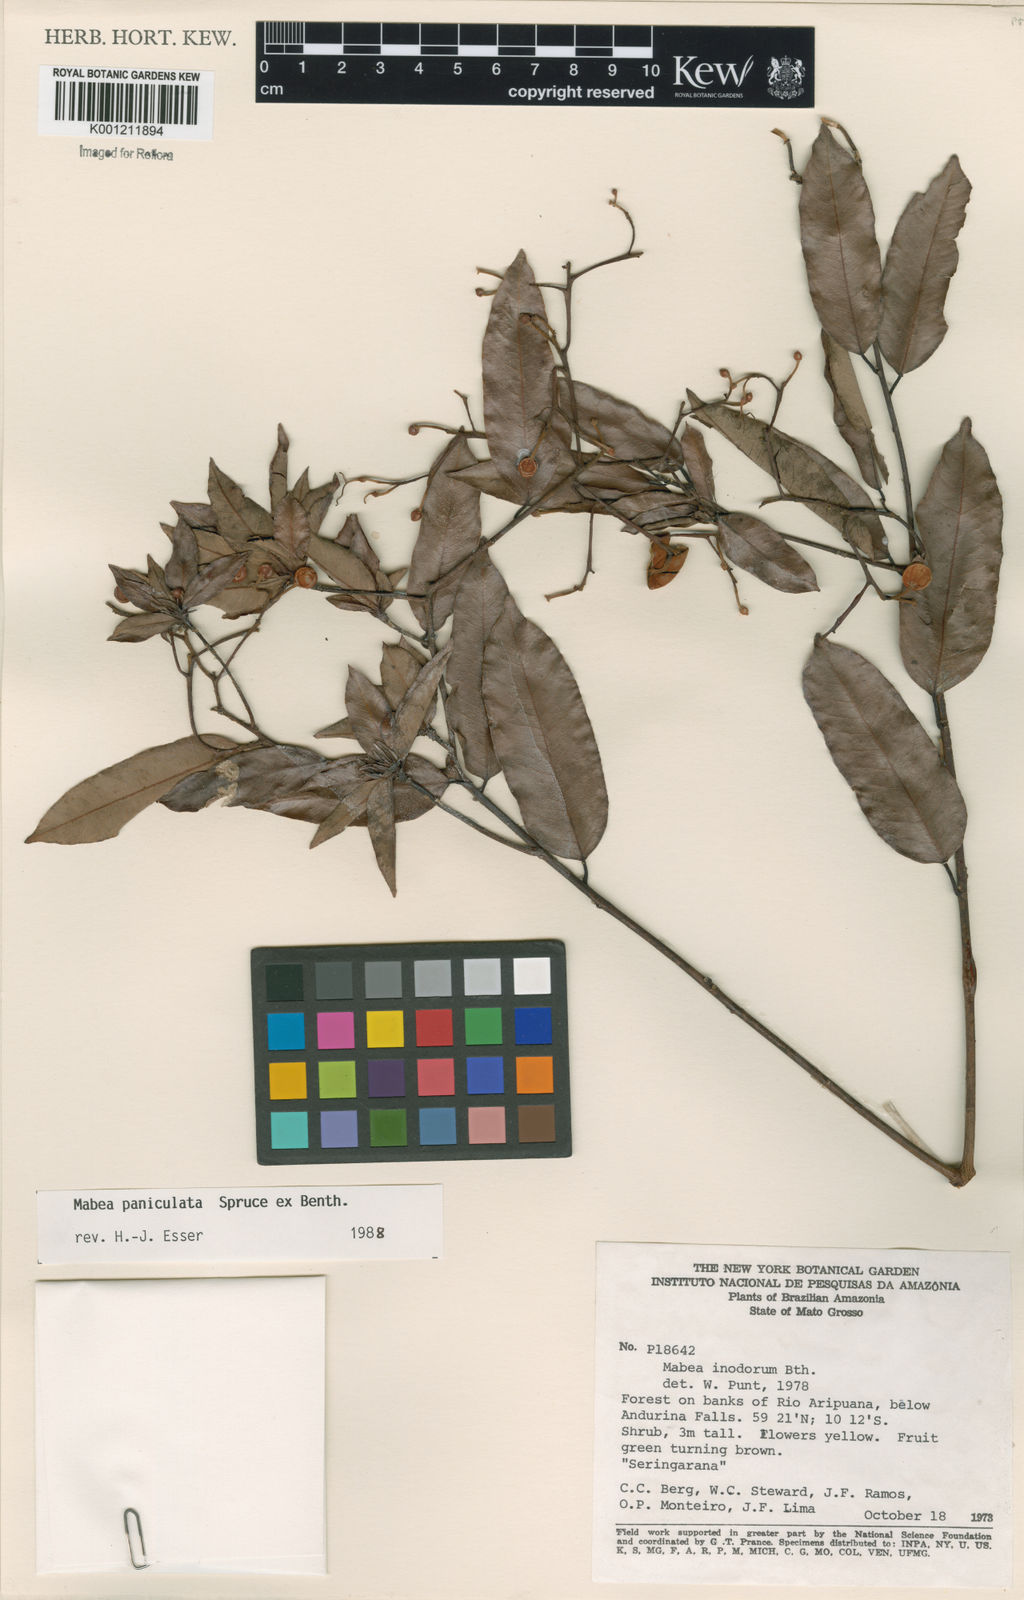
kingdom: Plantae
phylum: Tracheophyta
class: Magnoliopsida
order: Malpighiales
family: Euphorbiaceae
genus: Mabea
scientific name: Mabea paniculata
